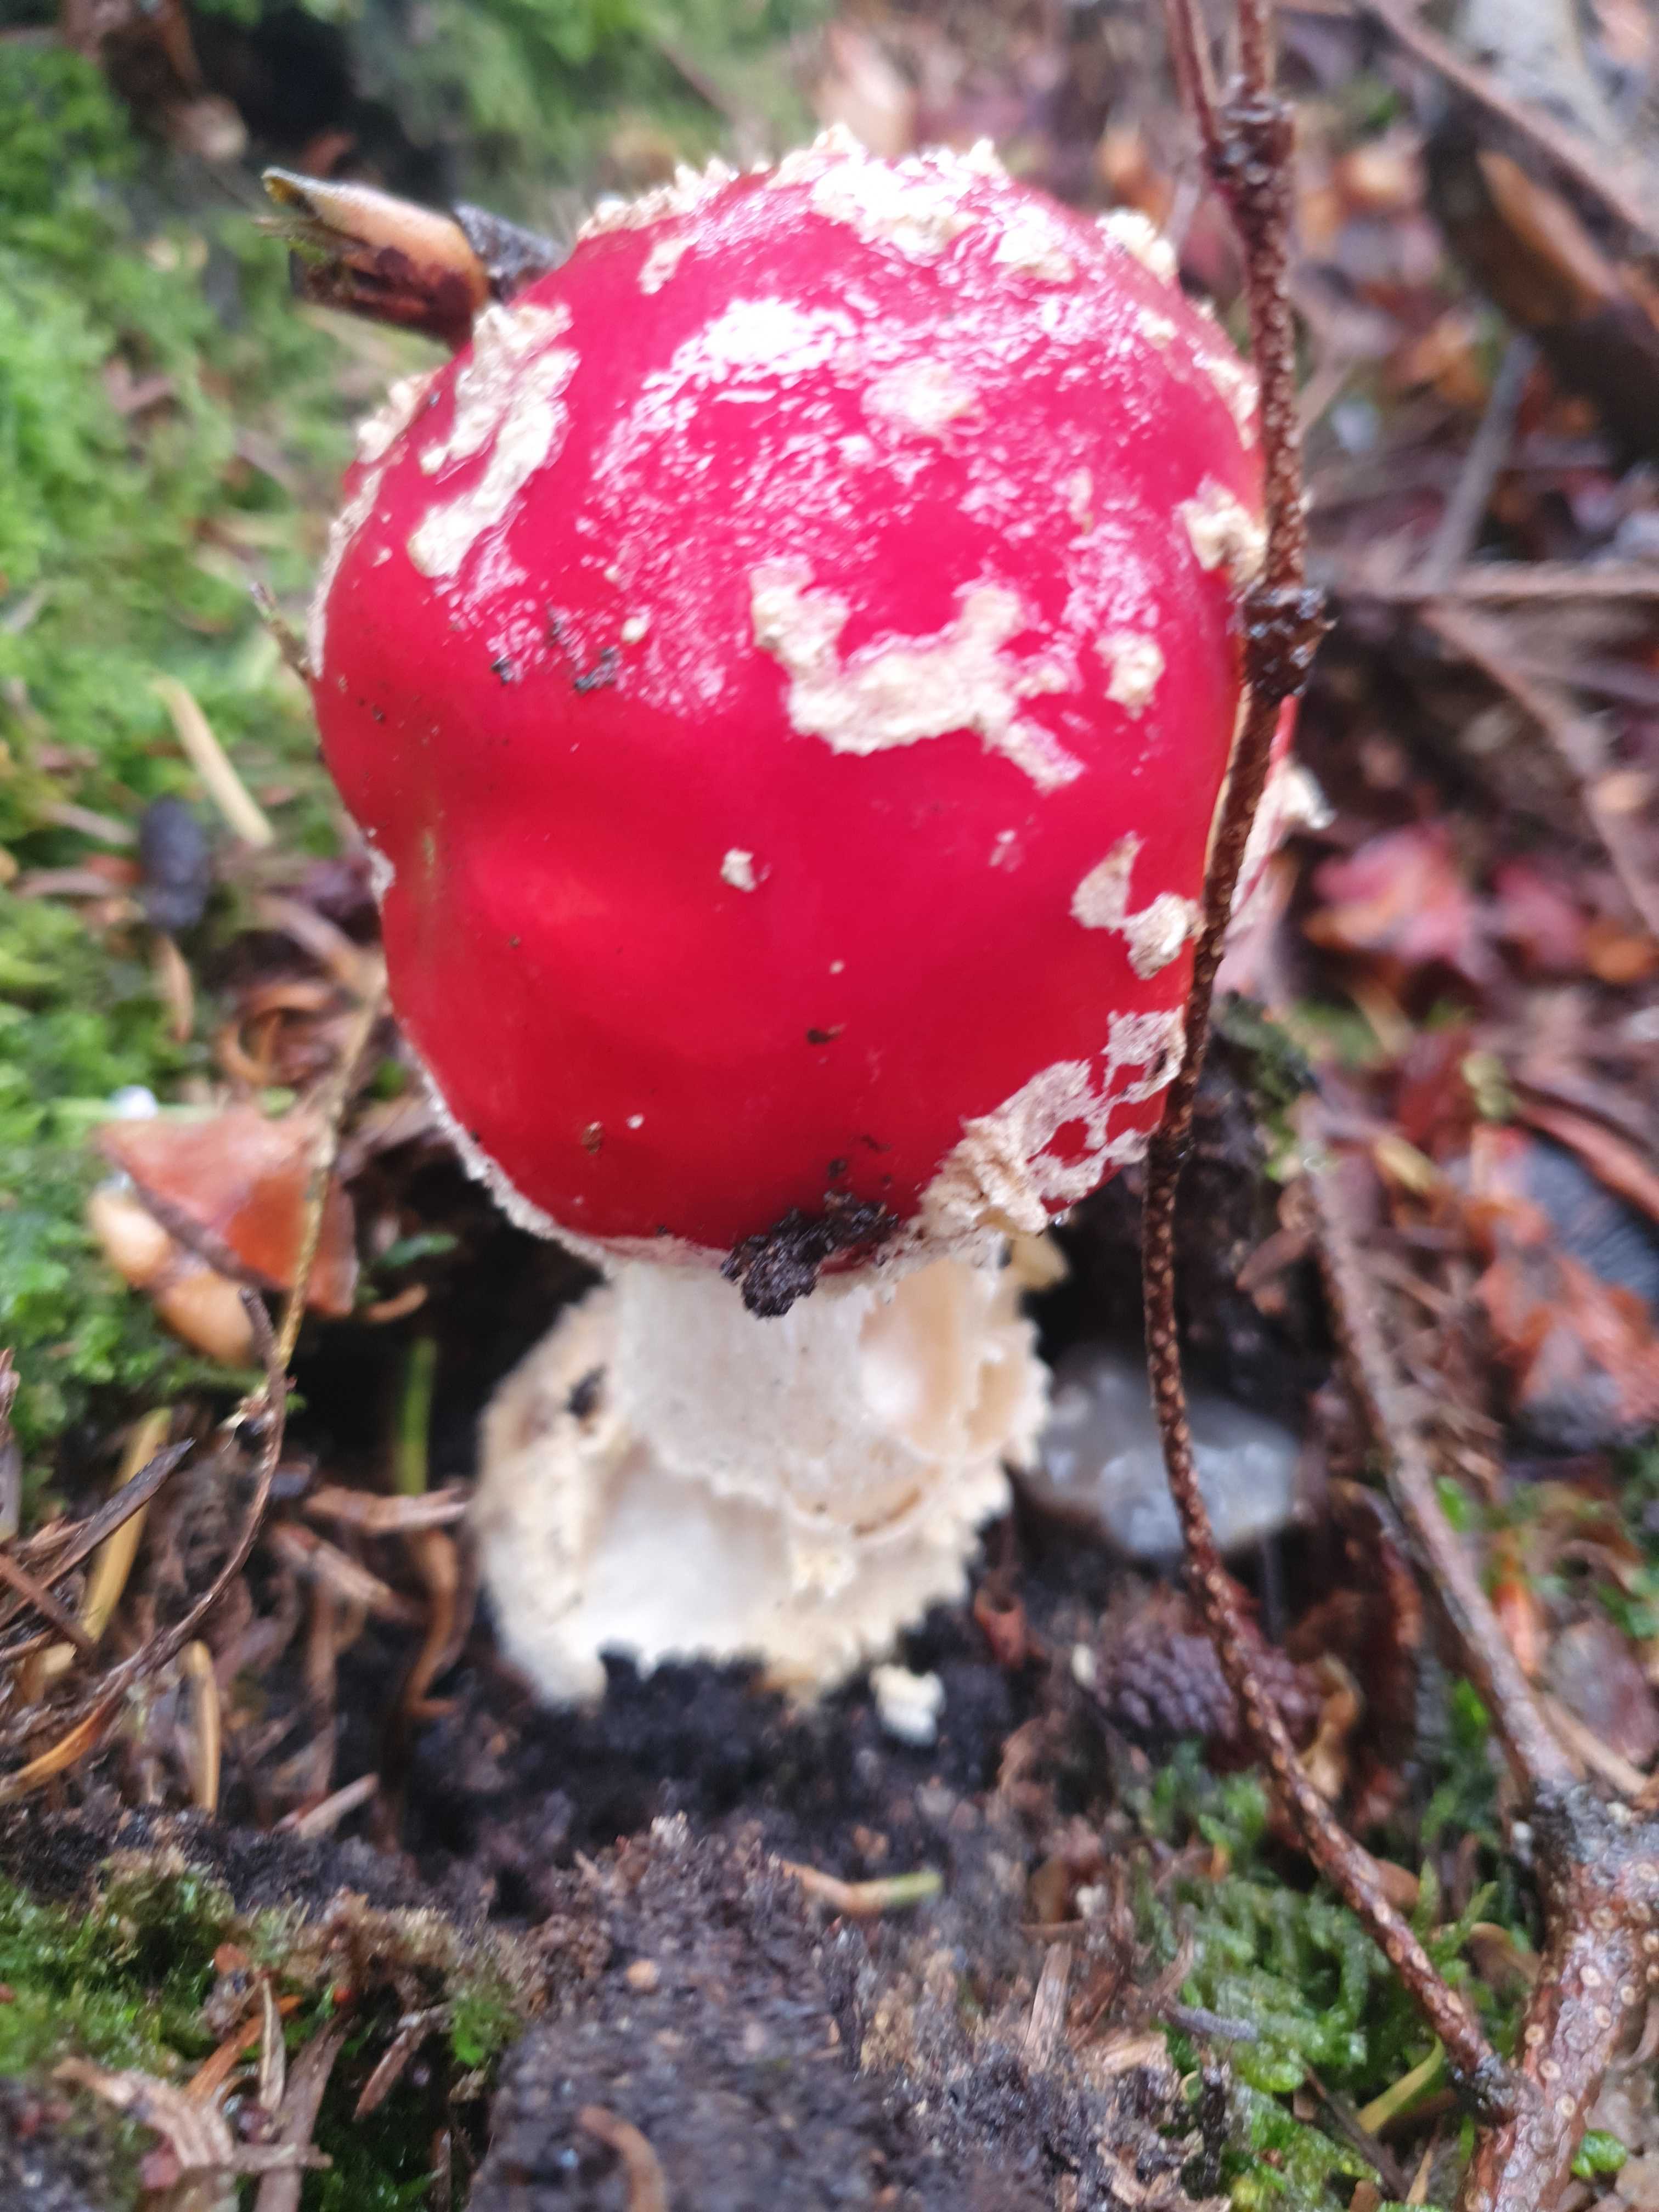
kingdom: Fungi
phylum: Basidiomycota
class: Agaricomycetes
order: Agaricales
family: Amanitaceae
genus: Amanita
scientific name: Amanita muscaria
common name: rød fluesvamp
